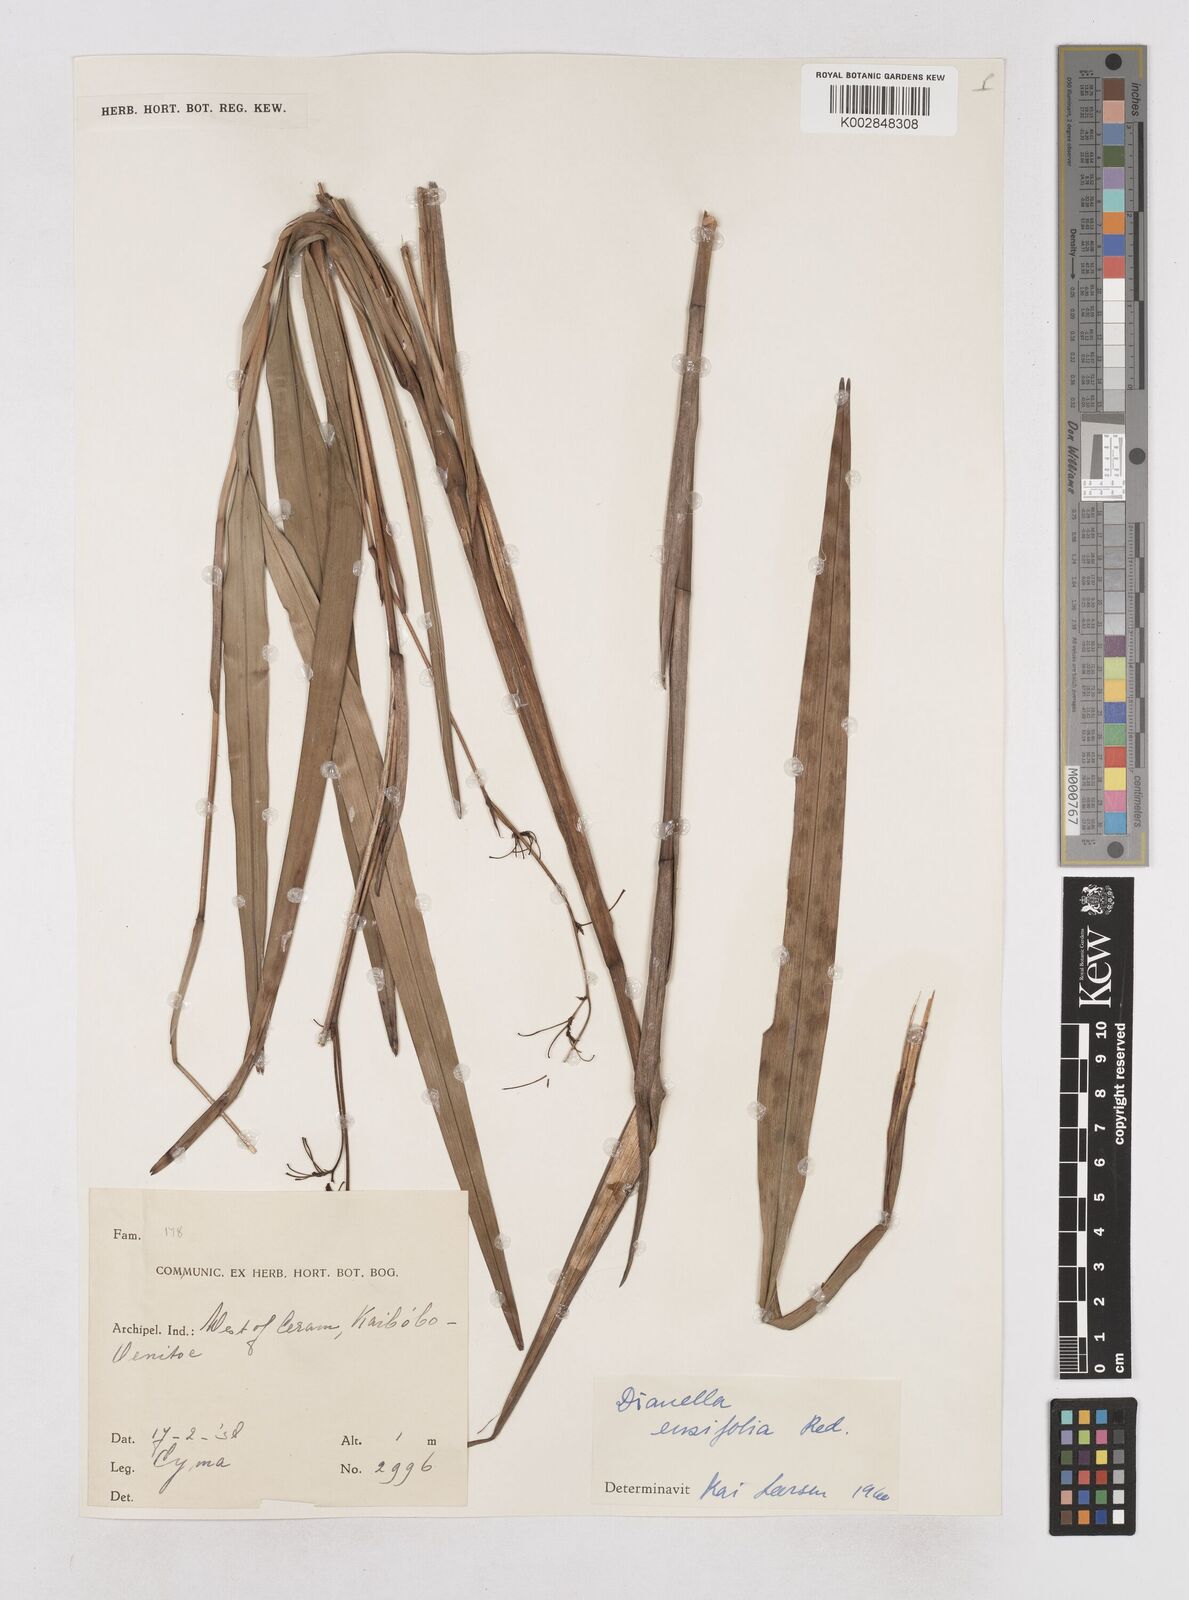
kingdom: Plantae
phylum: Tracheophyta
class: Liliopsida
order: Asparagales
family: Asphodelaceae
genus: Dianella
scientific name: Dianella ensifolia
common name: New zealand lilyplant
